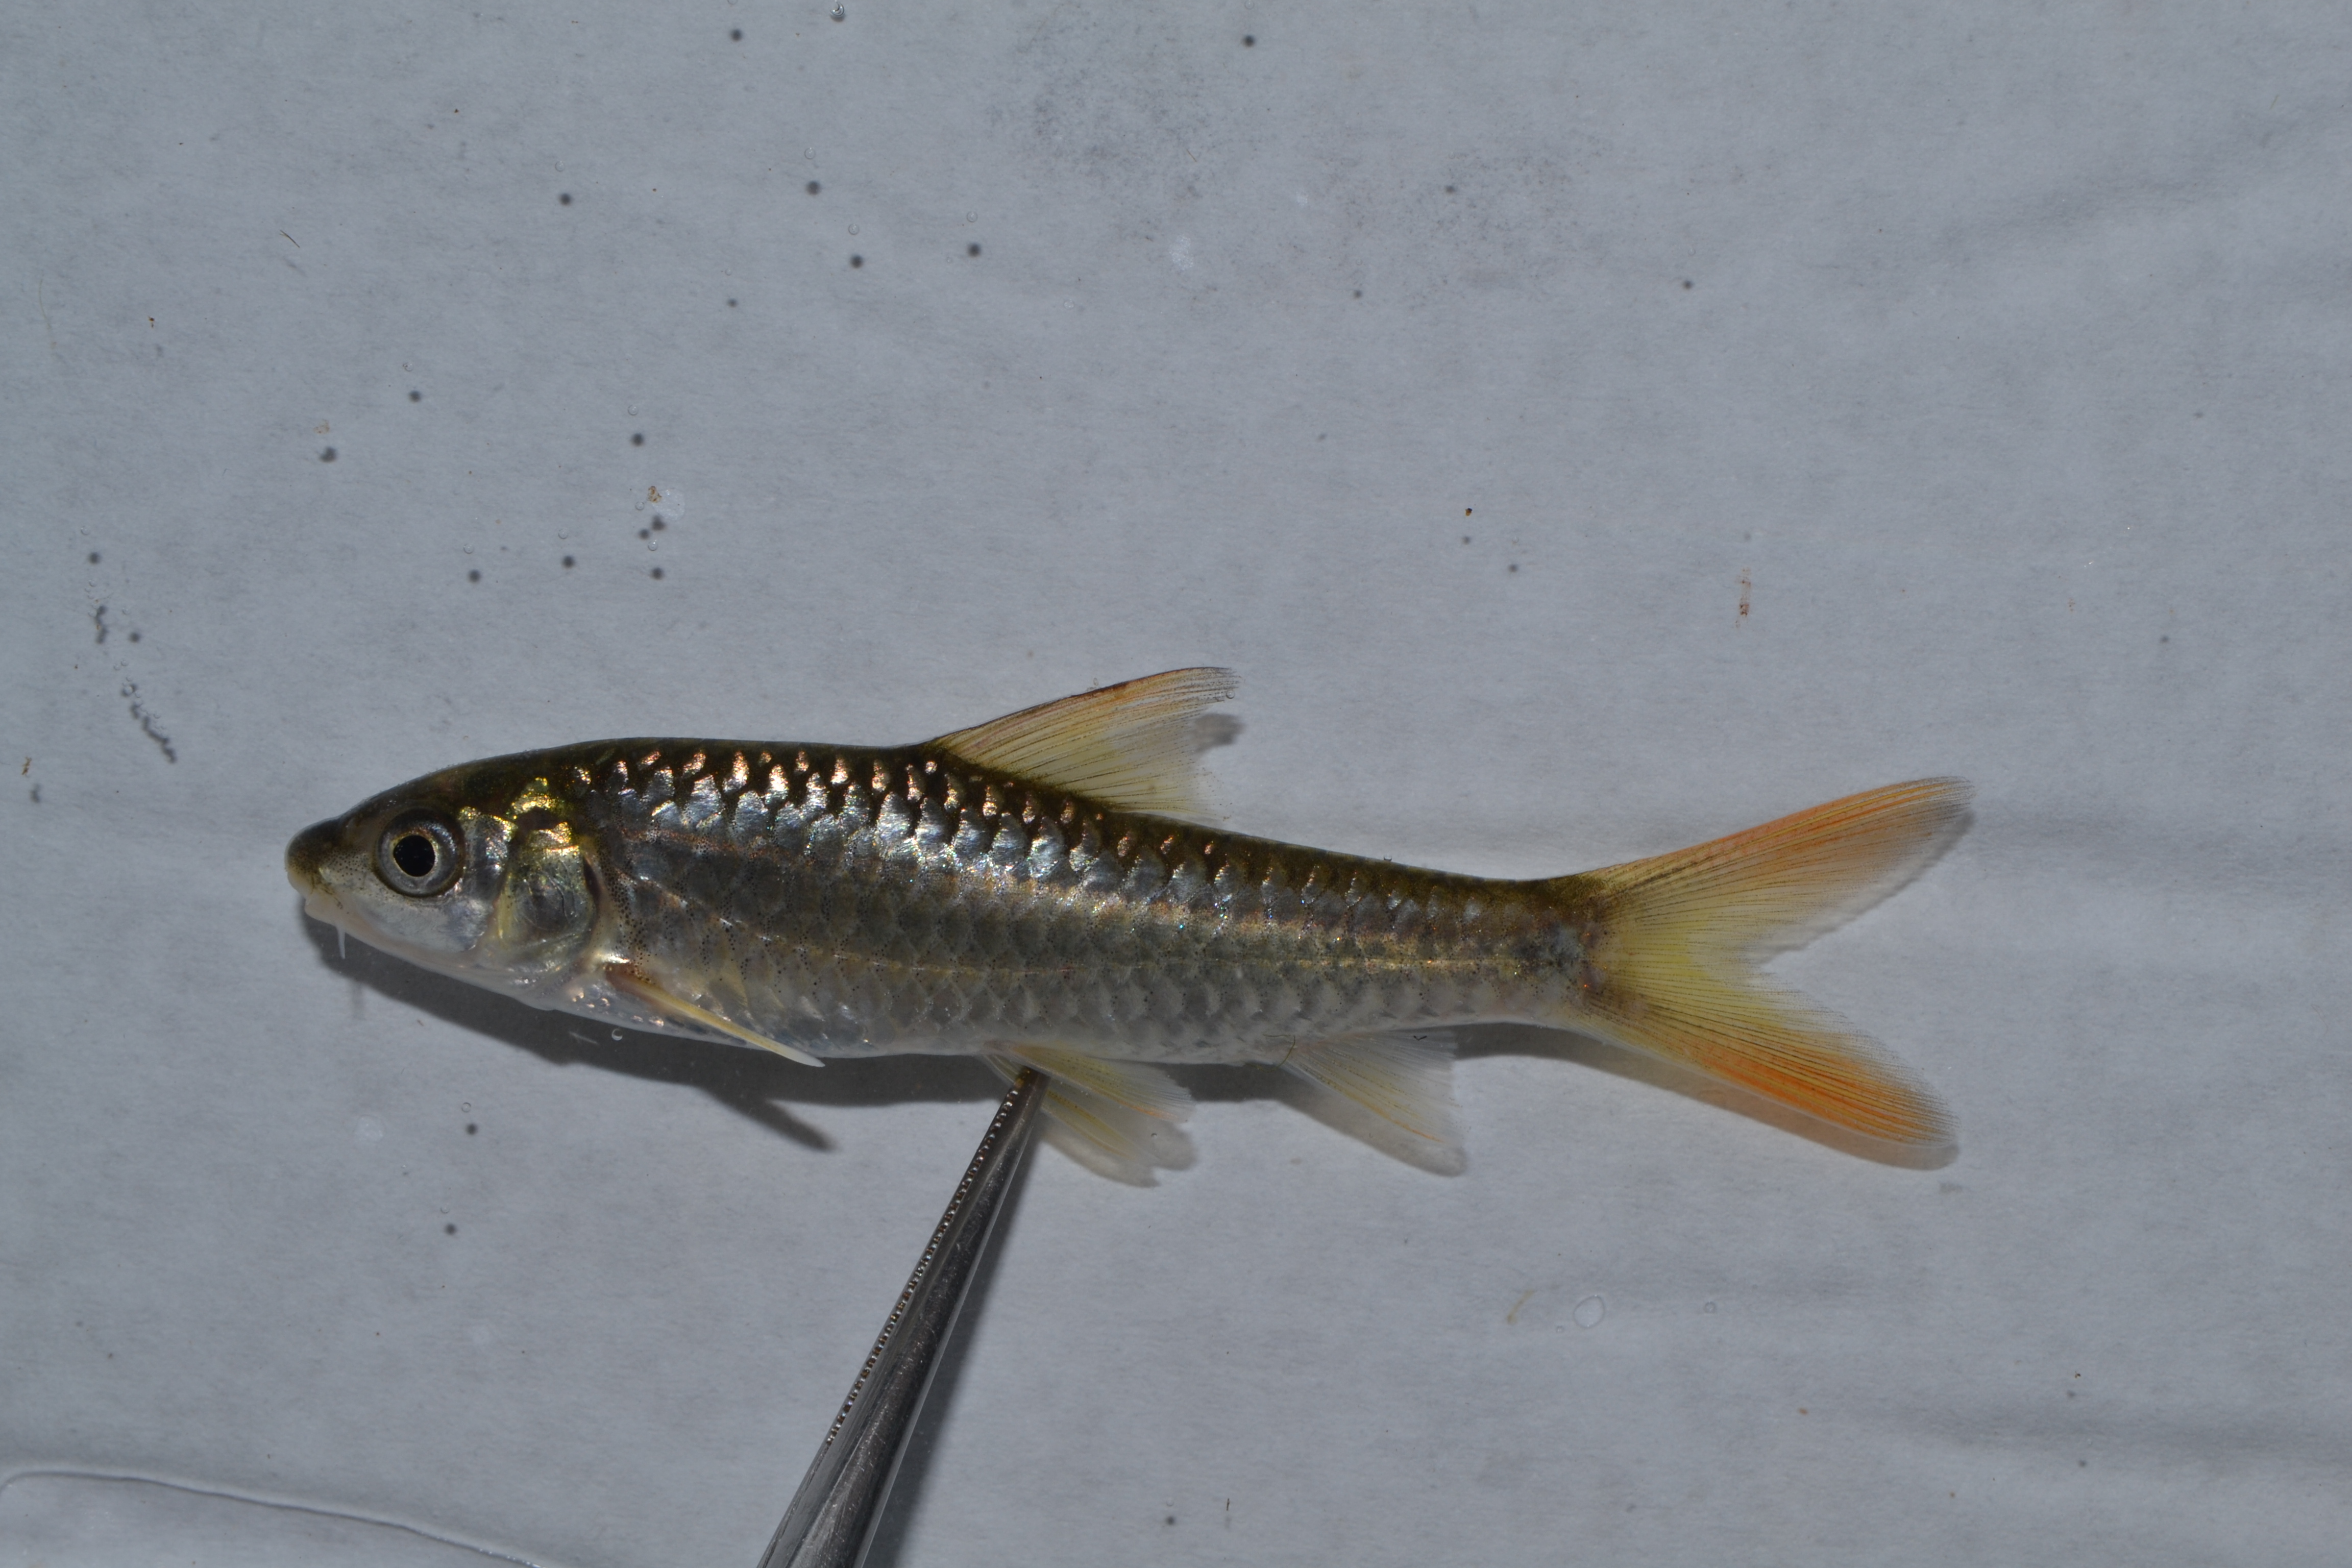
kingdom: Animalia
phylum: Chordata
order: Cypriniformes
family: Cyprinidae
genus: Barbus
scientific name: Barbus
